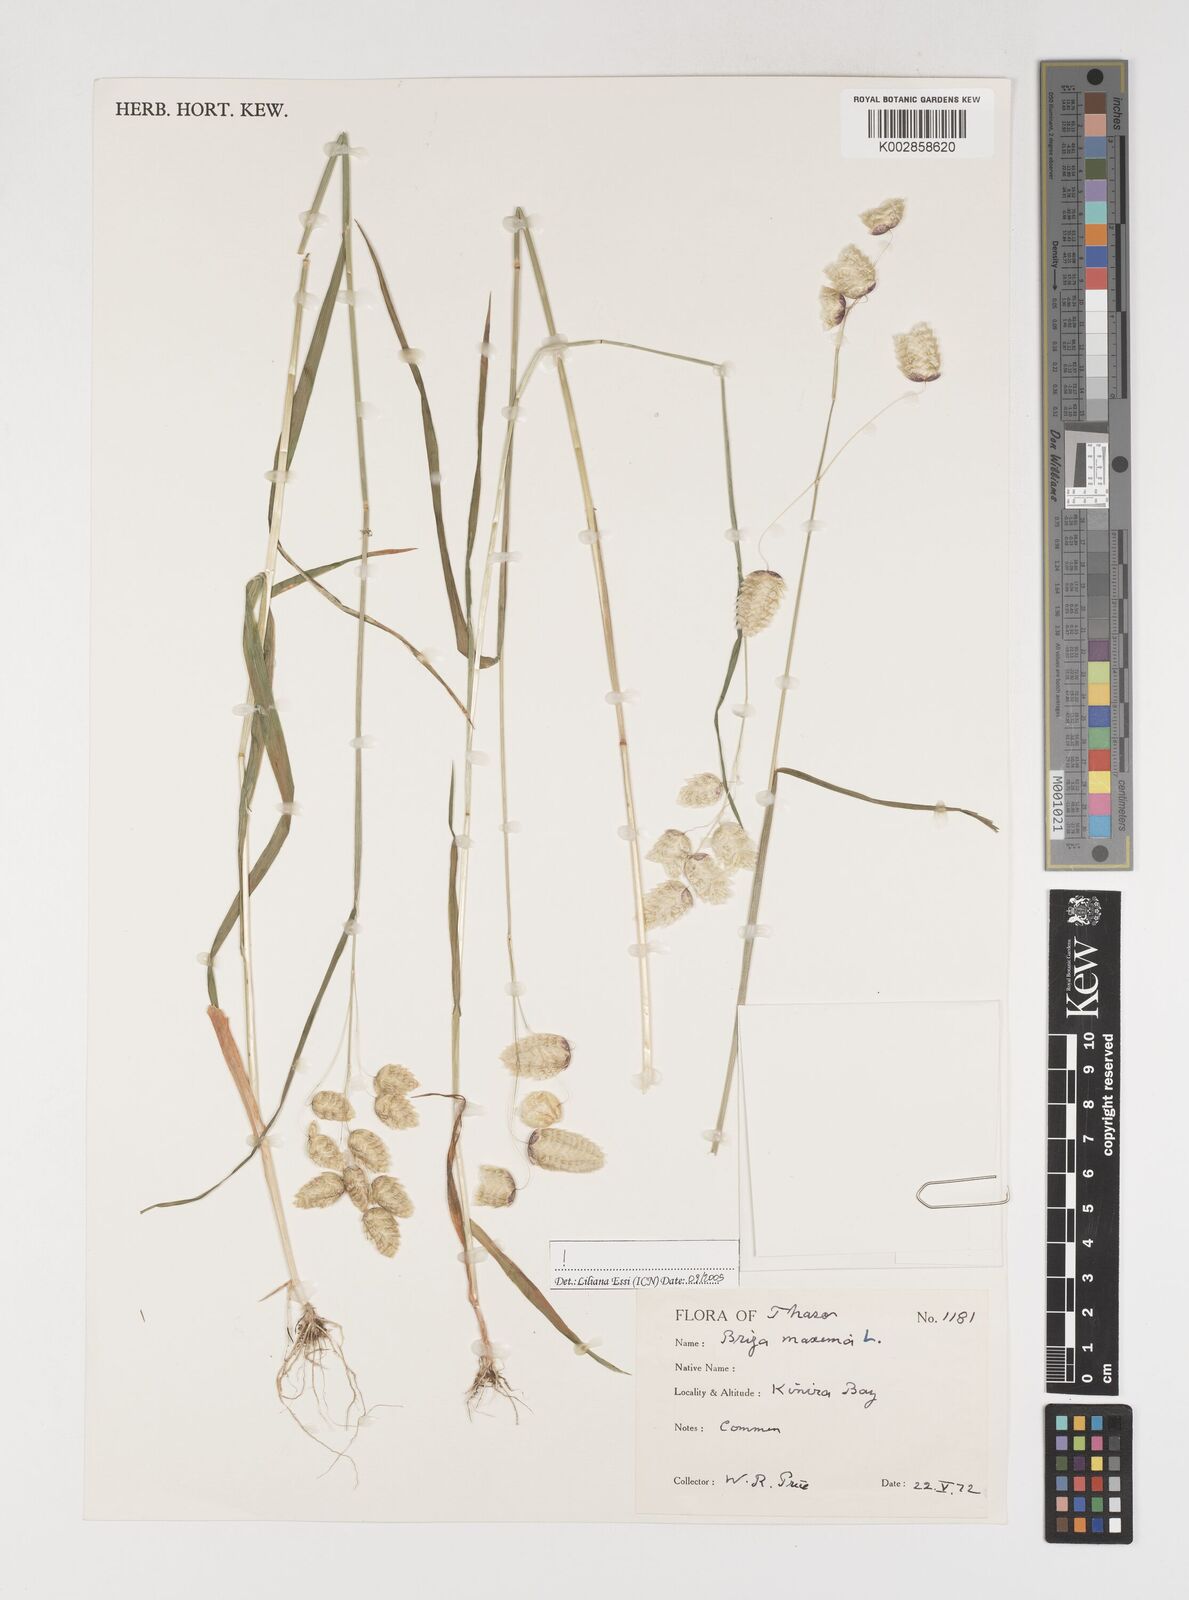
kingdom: Plantae
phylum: Tracheophyta
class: Liliopsida
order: Poales
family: Poaceae
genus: Briza
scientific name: Briza maxima
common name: Big quakinggrass
